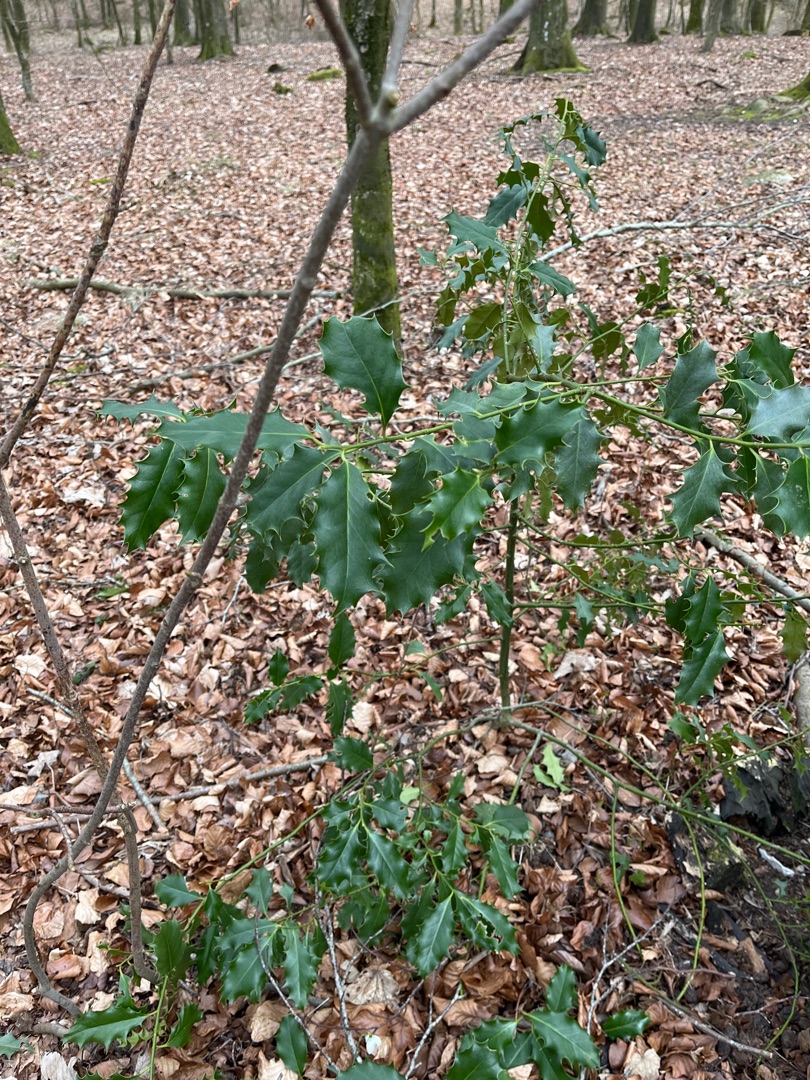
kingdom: Plantae
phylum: Tracheophyta
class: Magnoliopsida
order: Aquifoliales
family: Aquifoliaceae
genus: Ilex
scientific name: Ilex aquifolium
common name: Kristtorn
